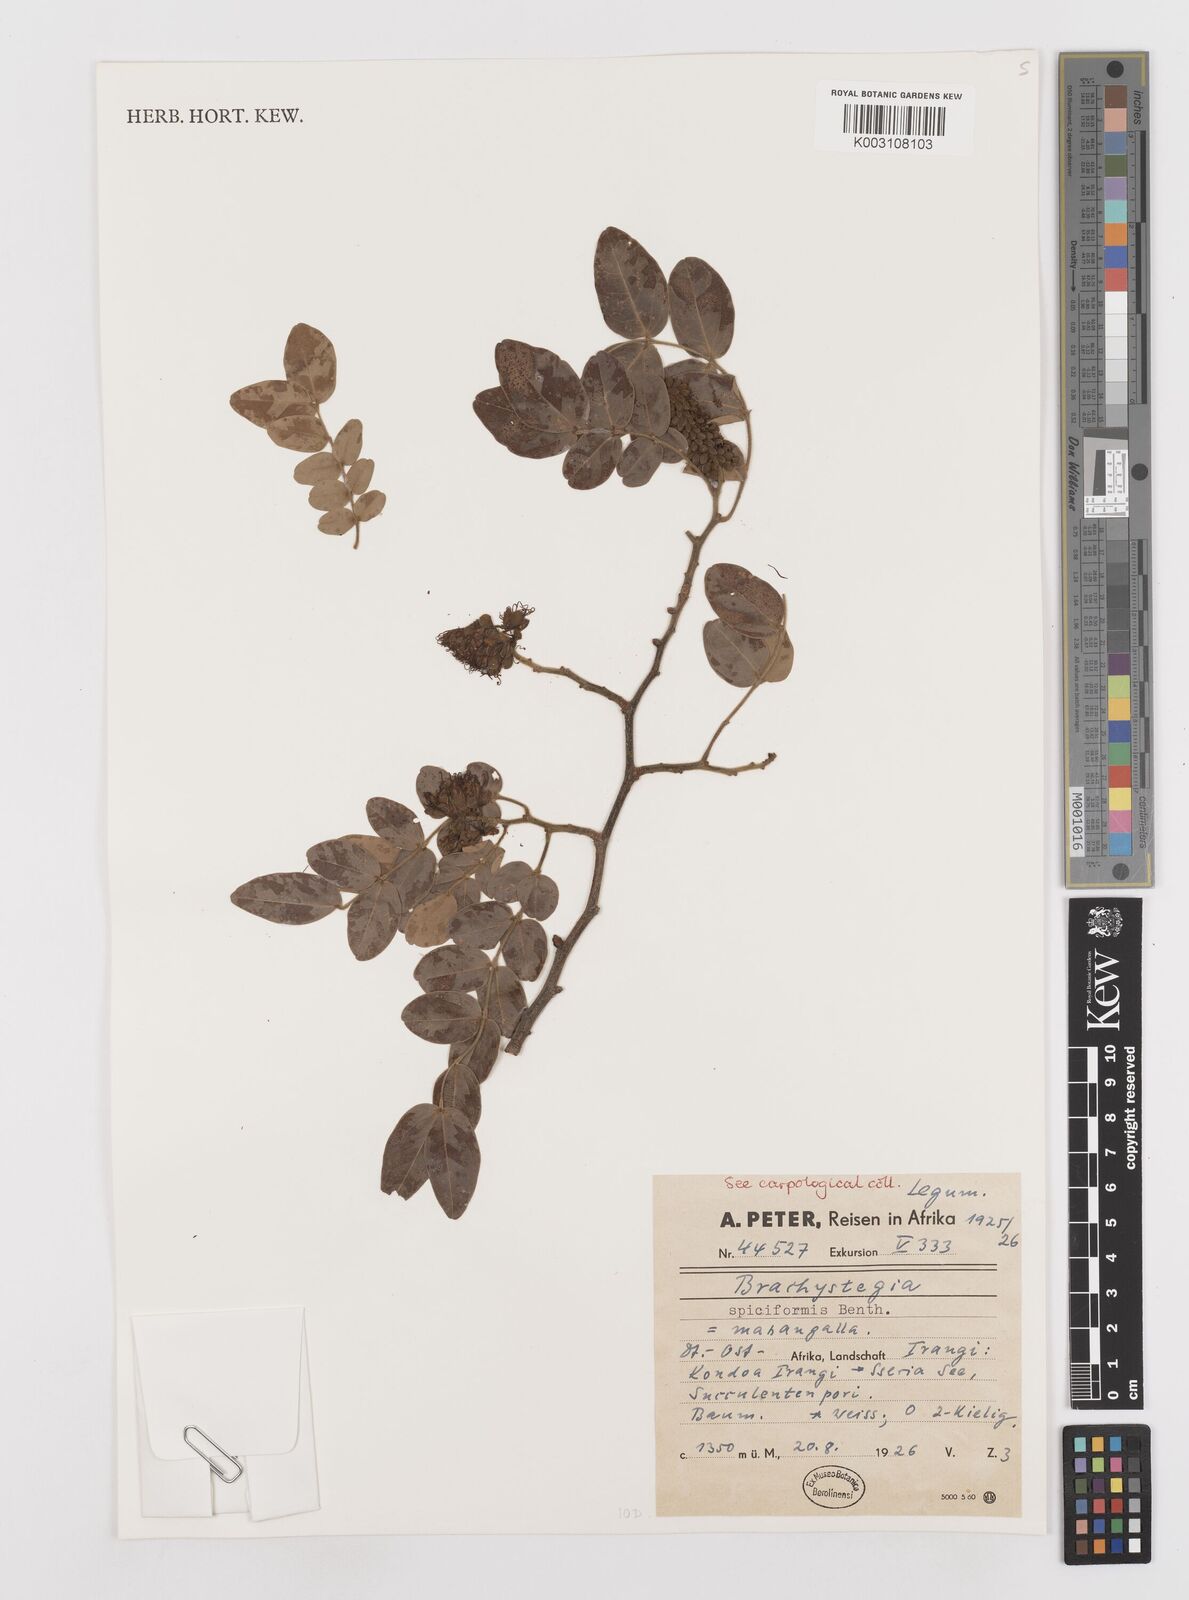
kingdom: Plantae
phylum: Tracheophyta
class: Magnoliopsida
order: Fabales
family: Fabaceae
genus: Brachystegia
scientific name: Brachystegia spiciformis
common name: Zebrawood
